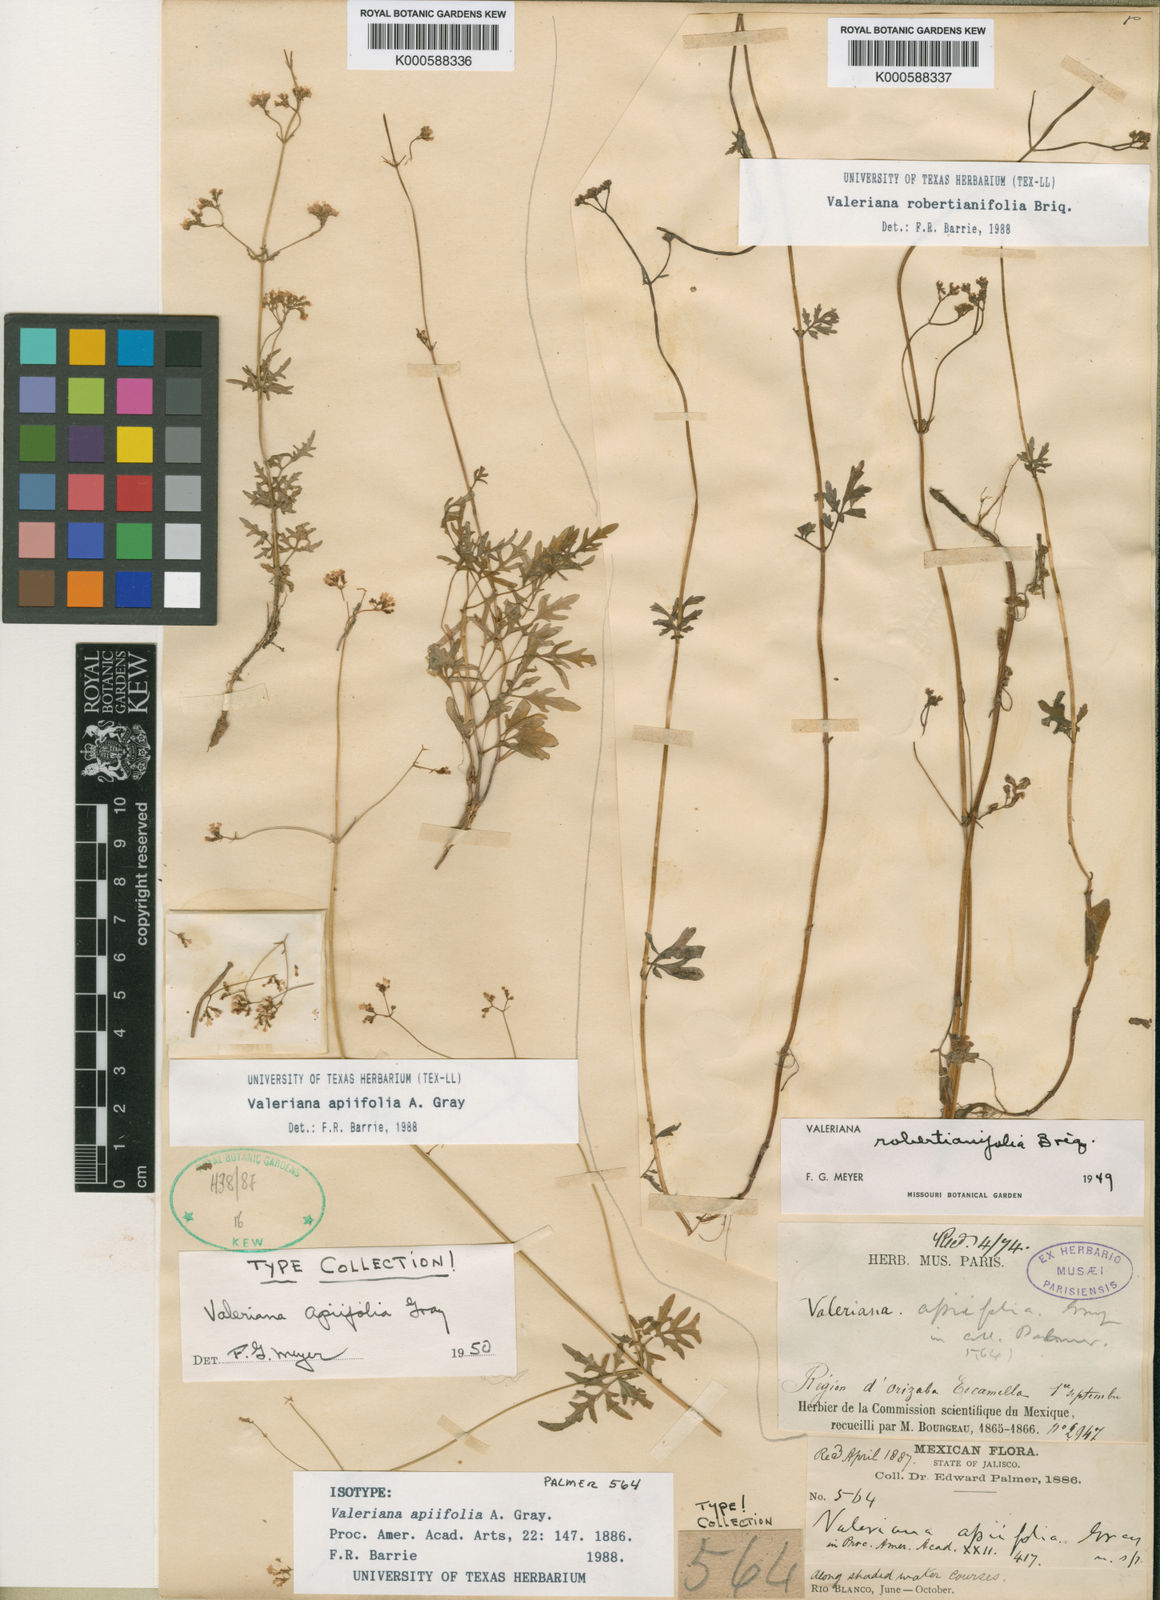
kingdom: Plantae
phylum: Tracheophyta
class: Magnoliopsida
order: Dipsacales
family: Caprifoliaceae
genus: Valeriana
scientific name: Valeriana
